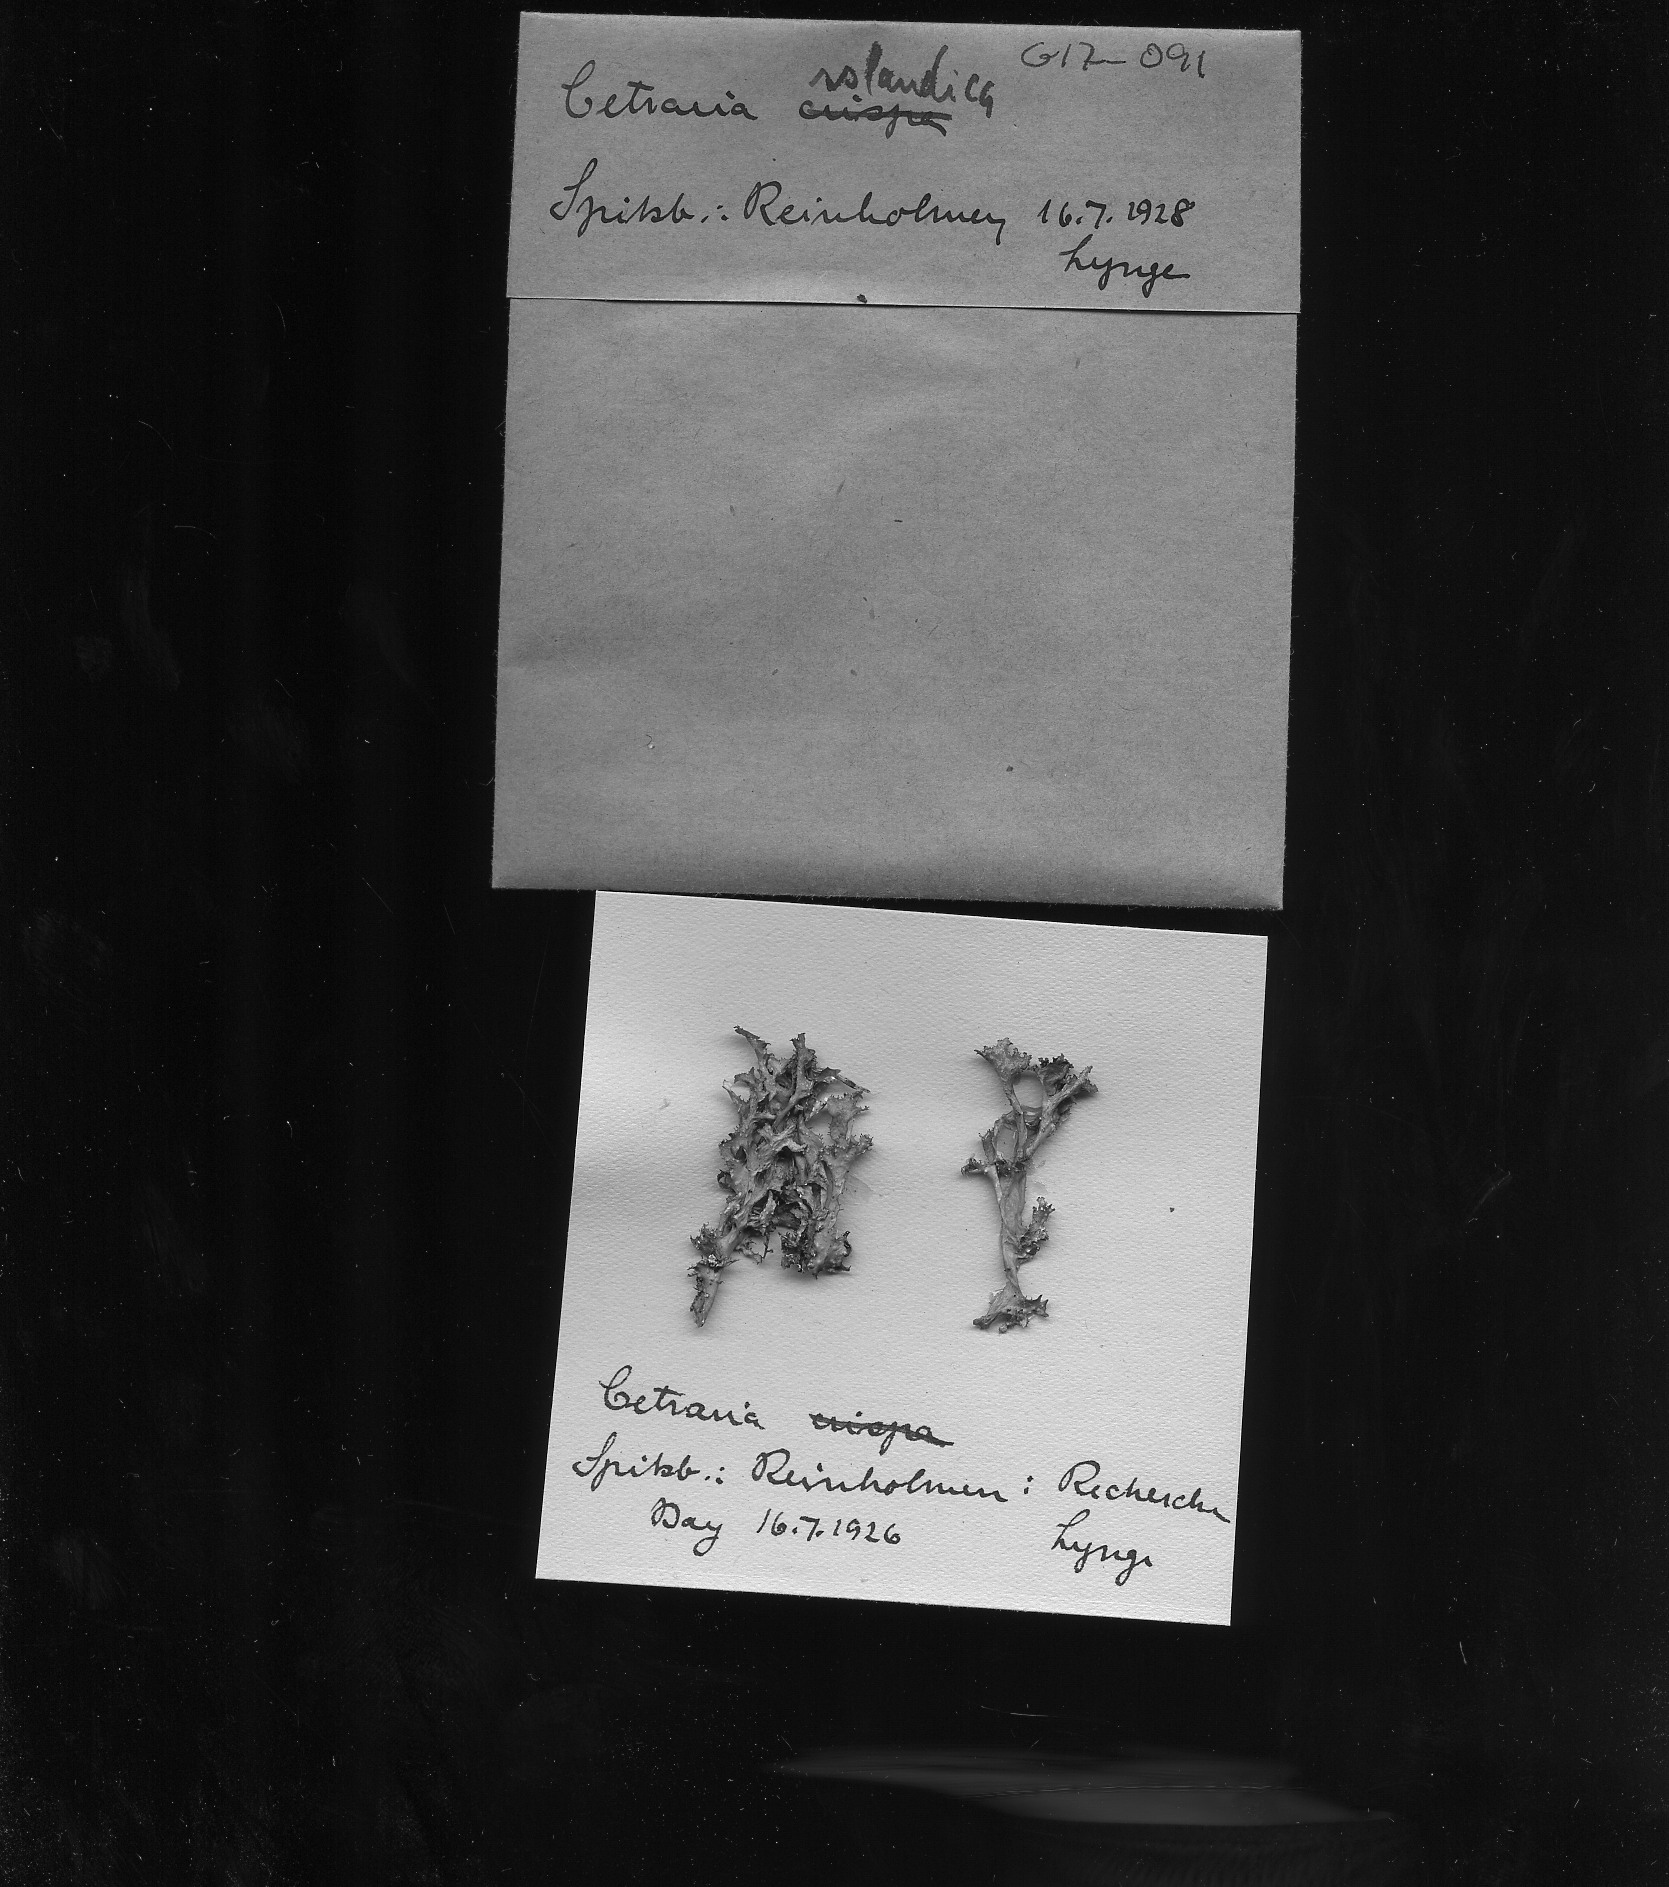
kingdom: Fungi
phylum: Ascomycota
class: Lecanoromycetes
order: Lecanorales
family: Parmeliaceae
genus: Cetraria
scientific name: Cetraria ericetorum
